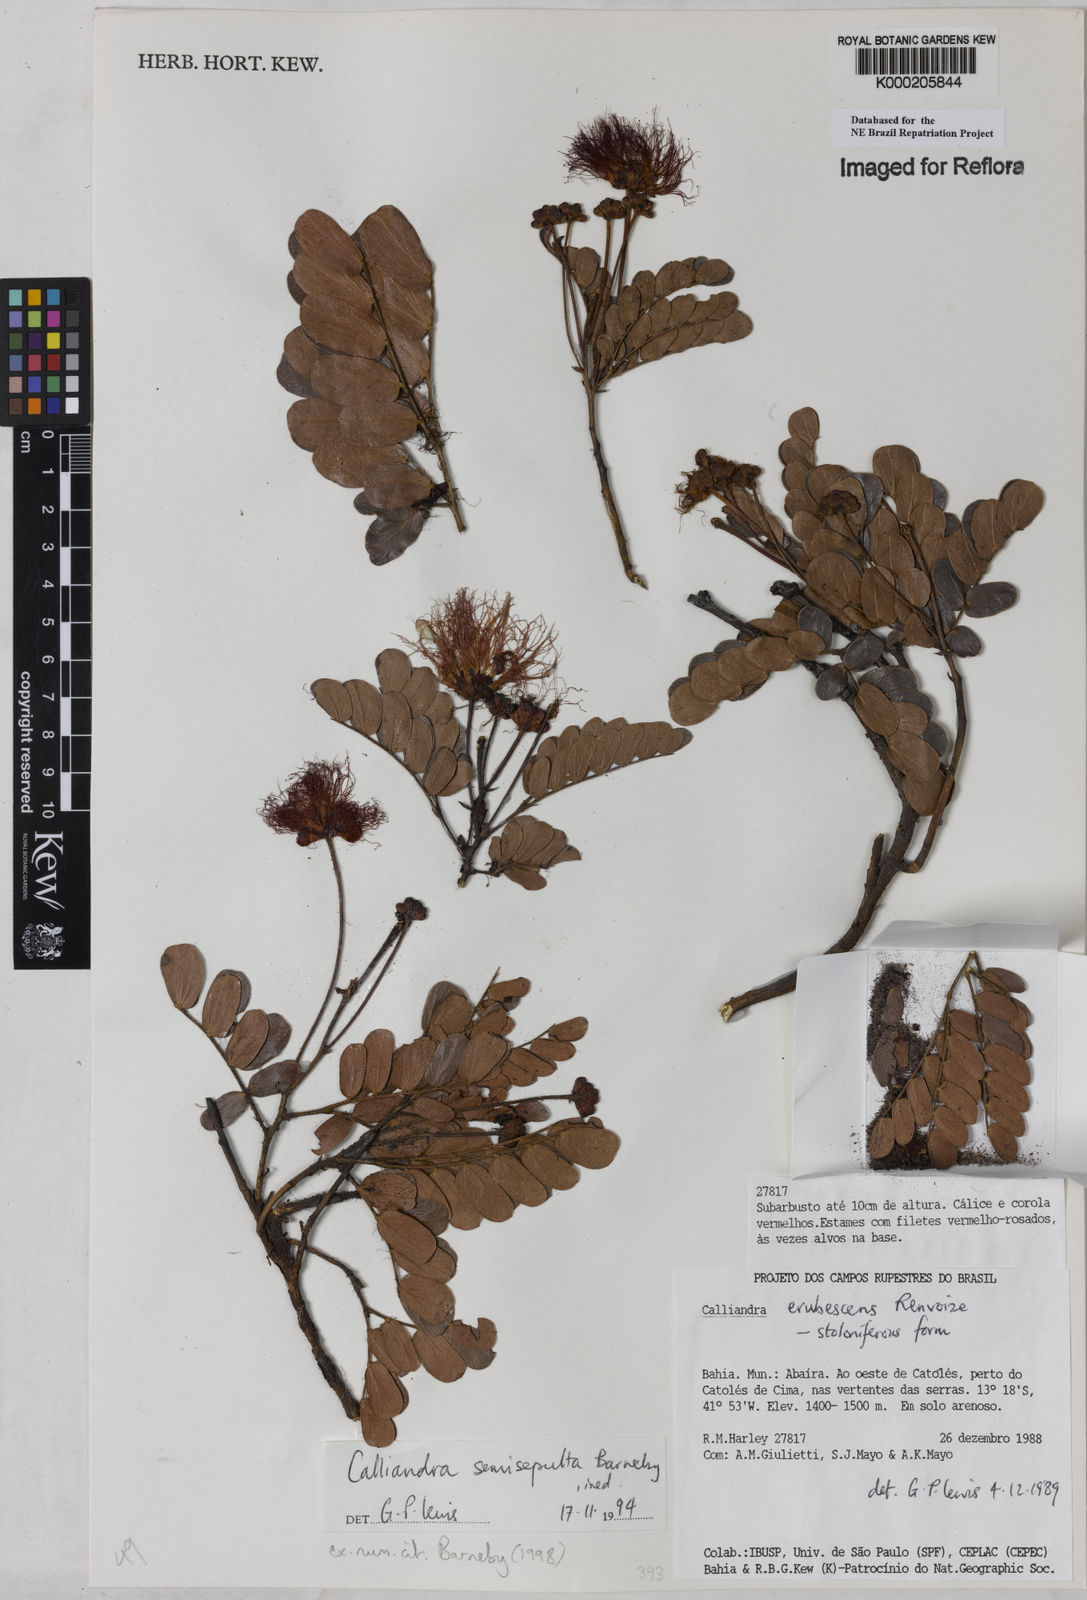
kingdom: Plantae
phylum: Tracheophyta
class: Magnoliopsida
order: Fabales
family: Fabaceae
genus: Calliandra
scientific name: Calliandra semisepulta
